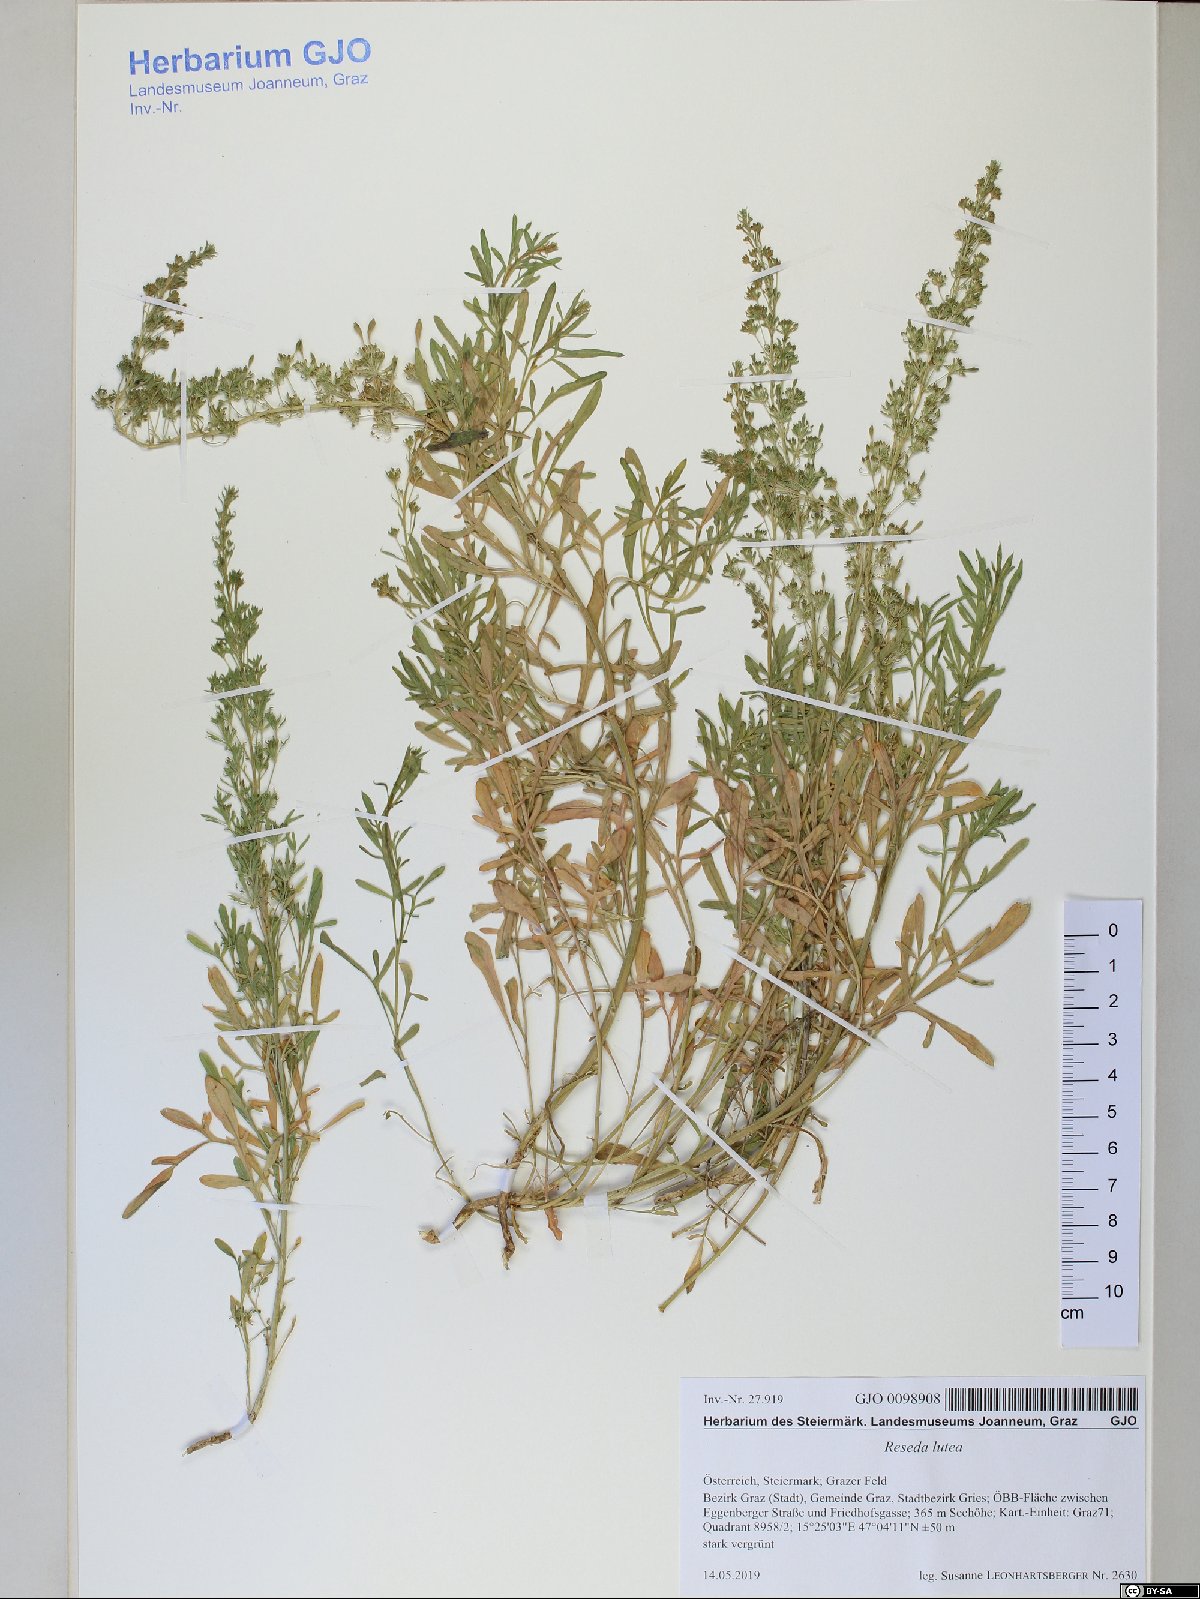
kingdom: Plantae
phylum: Tracheophyta
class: Magnoliopsida
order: Brassicales
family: Resedaceae
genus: Reseda
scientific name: Reseda lutea
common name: Wild mignonette
